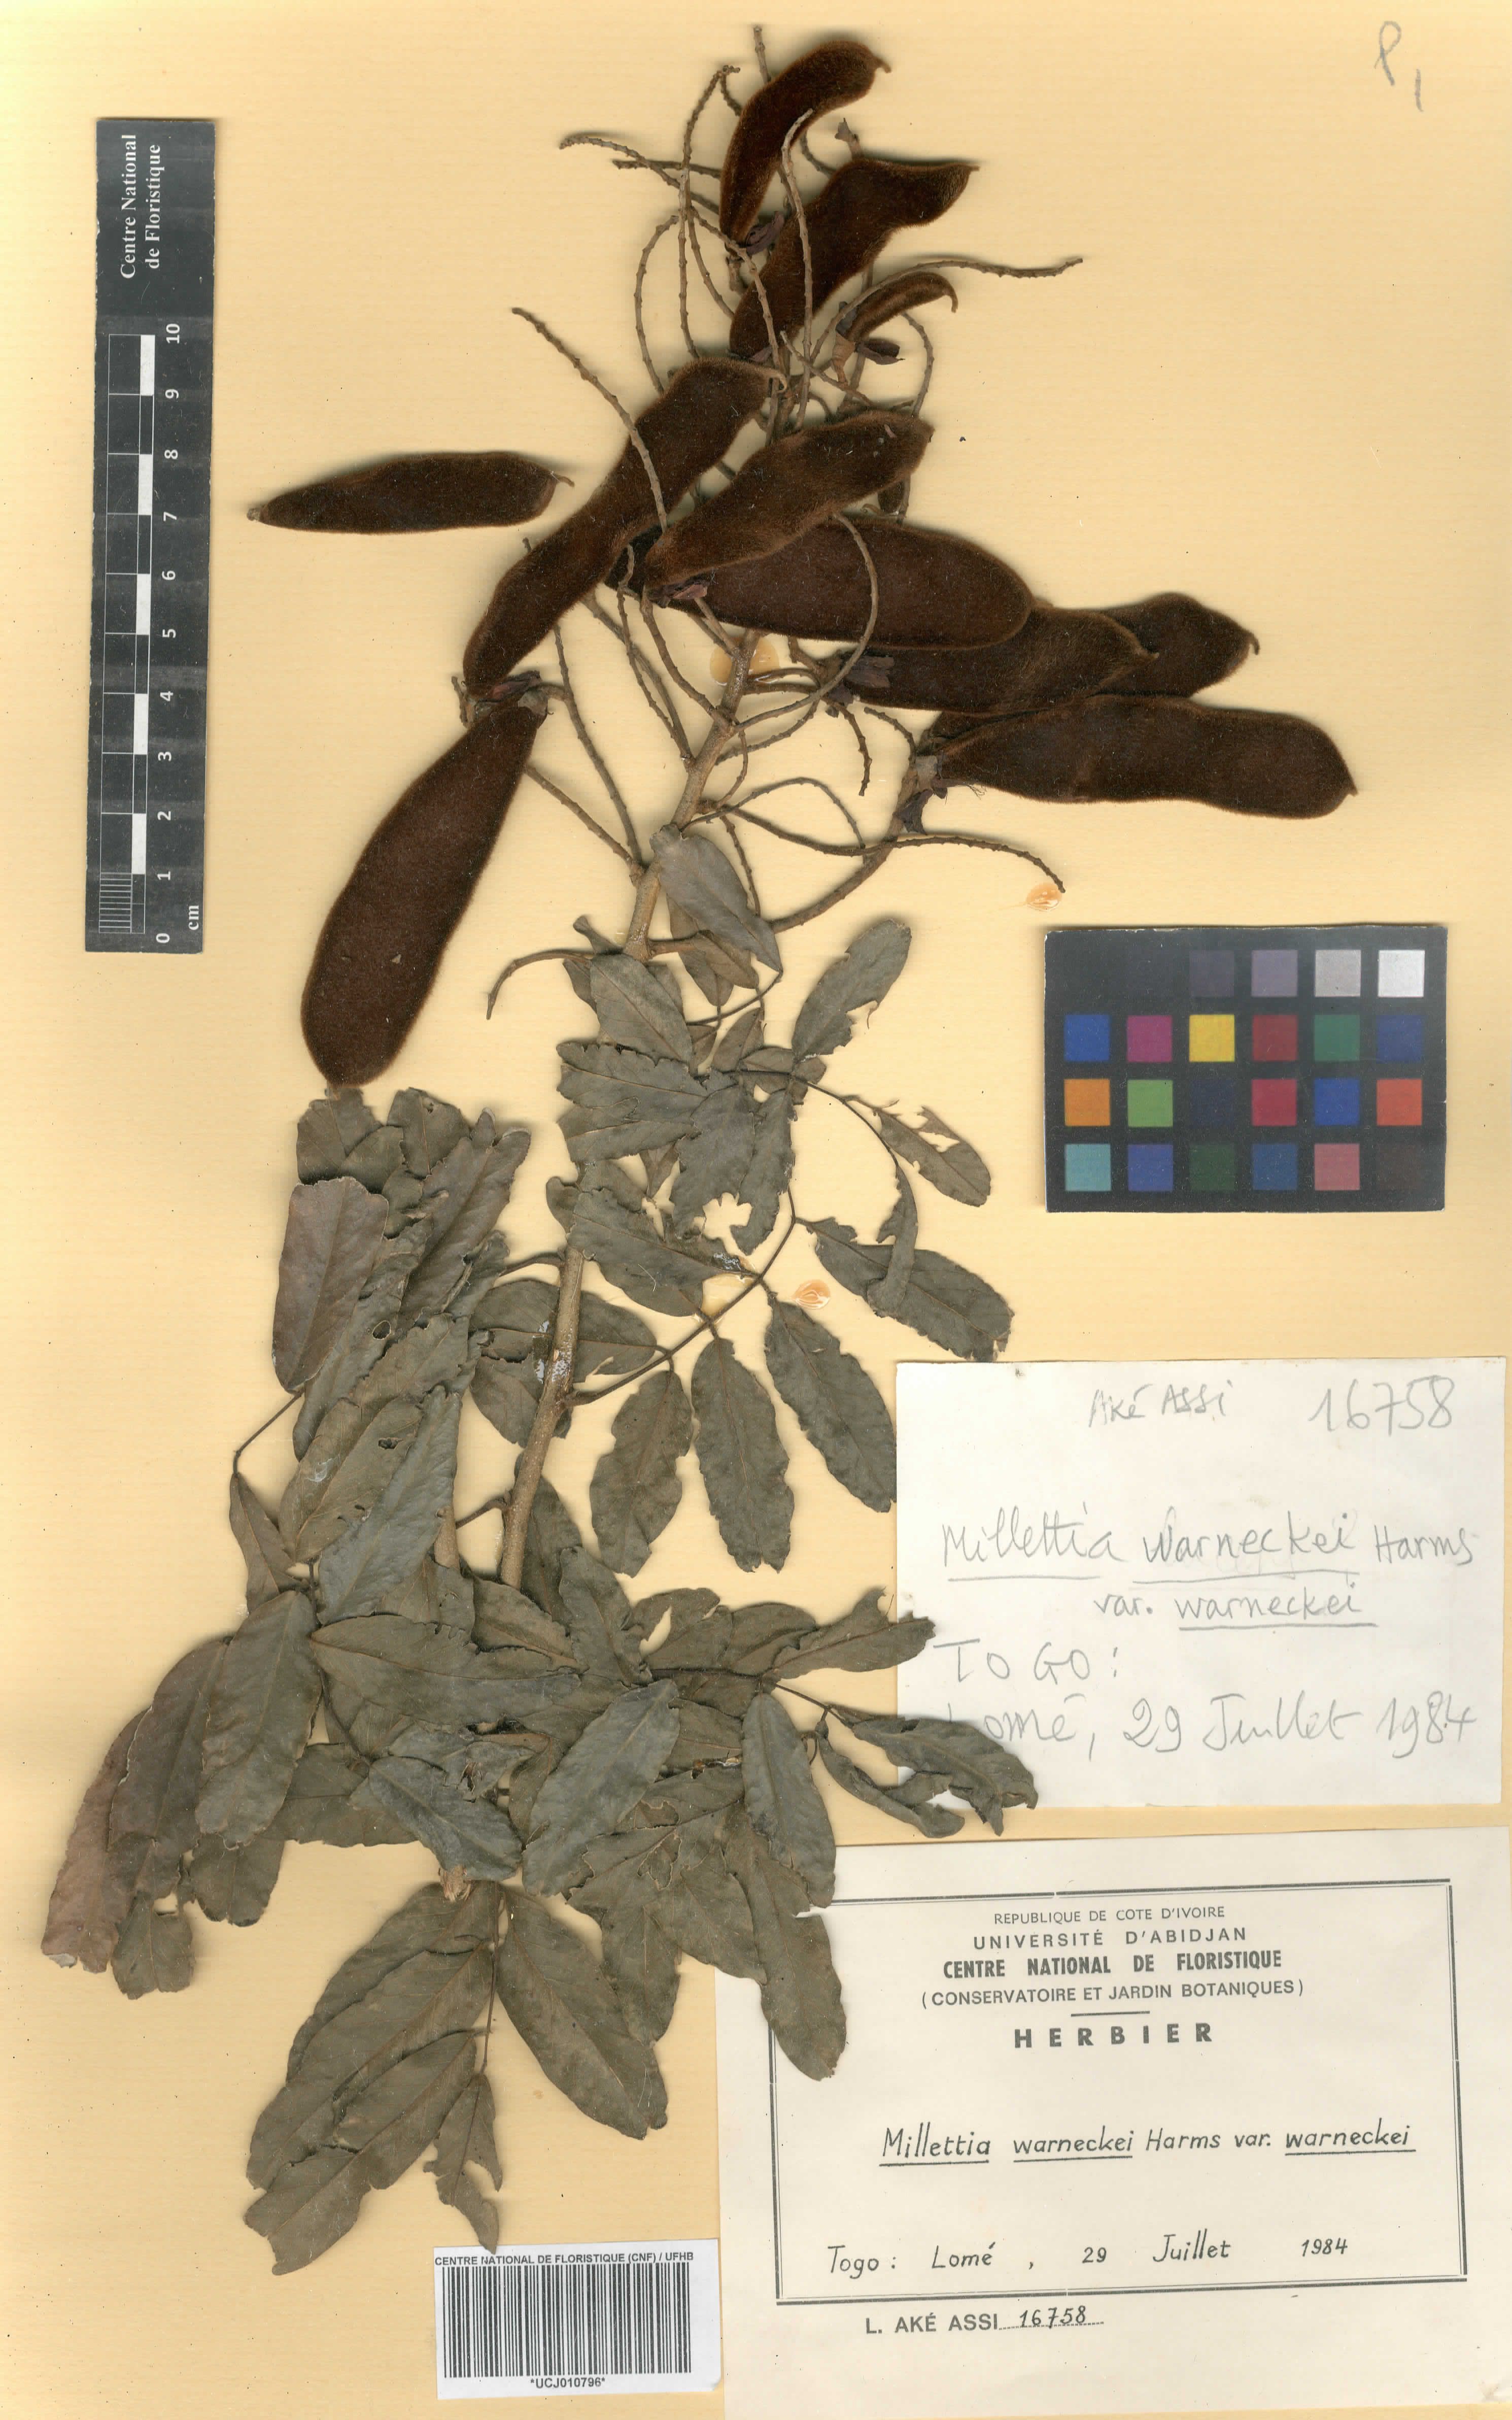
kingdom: Plantae
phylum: Tracheophyta
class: Magnoliopsida
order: Fabales
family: Fabaceae
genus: Millettia
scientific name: Millettia warneckei
